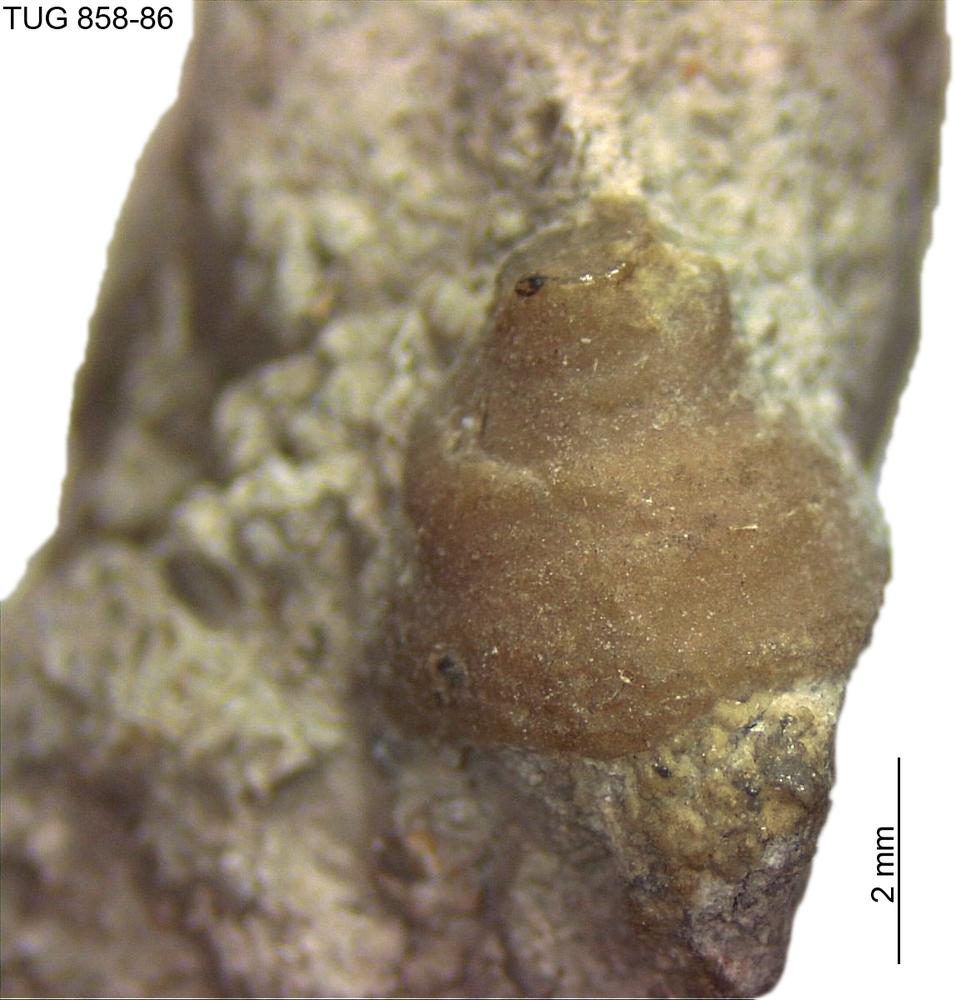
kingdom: Animalia
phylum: Mollusca
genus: Anticalyptraea
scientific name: Anticalyptraea westergaardi
